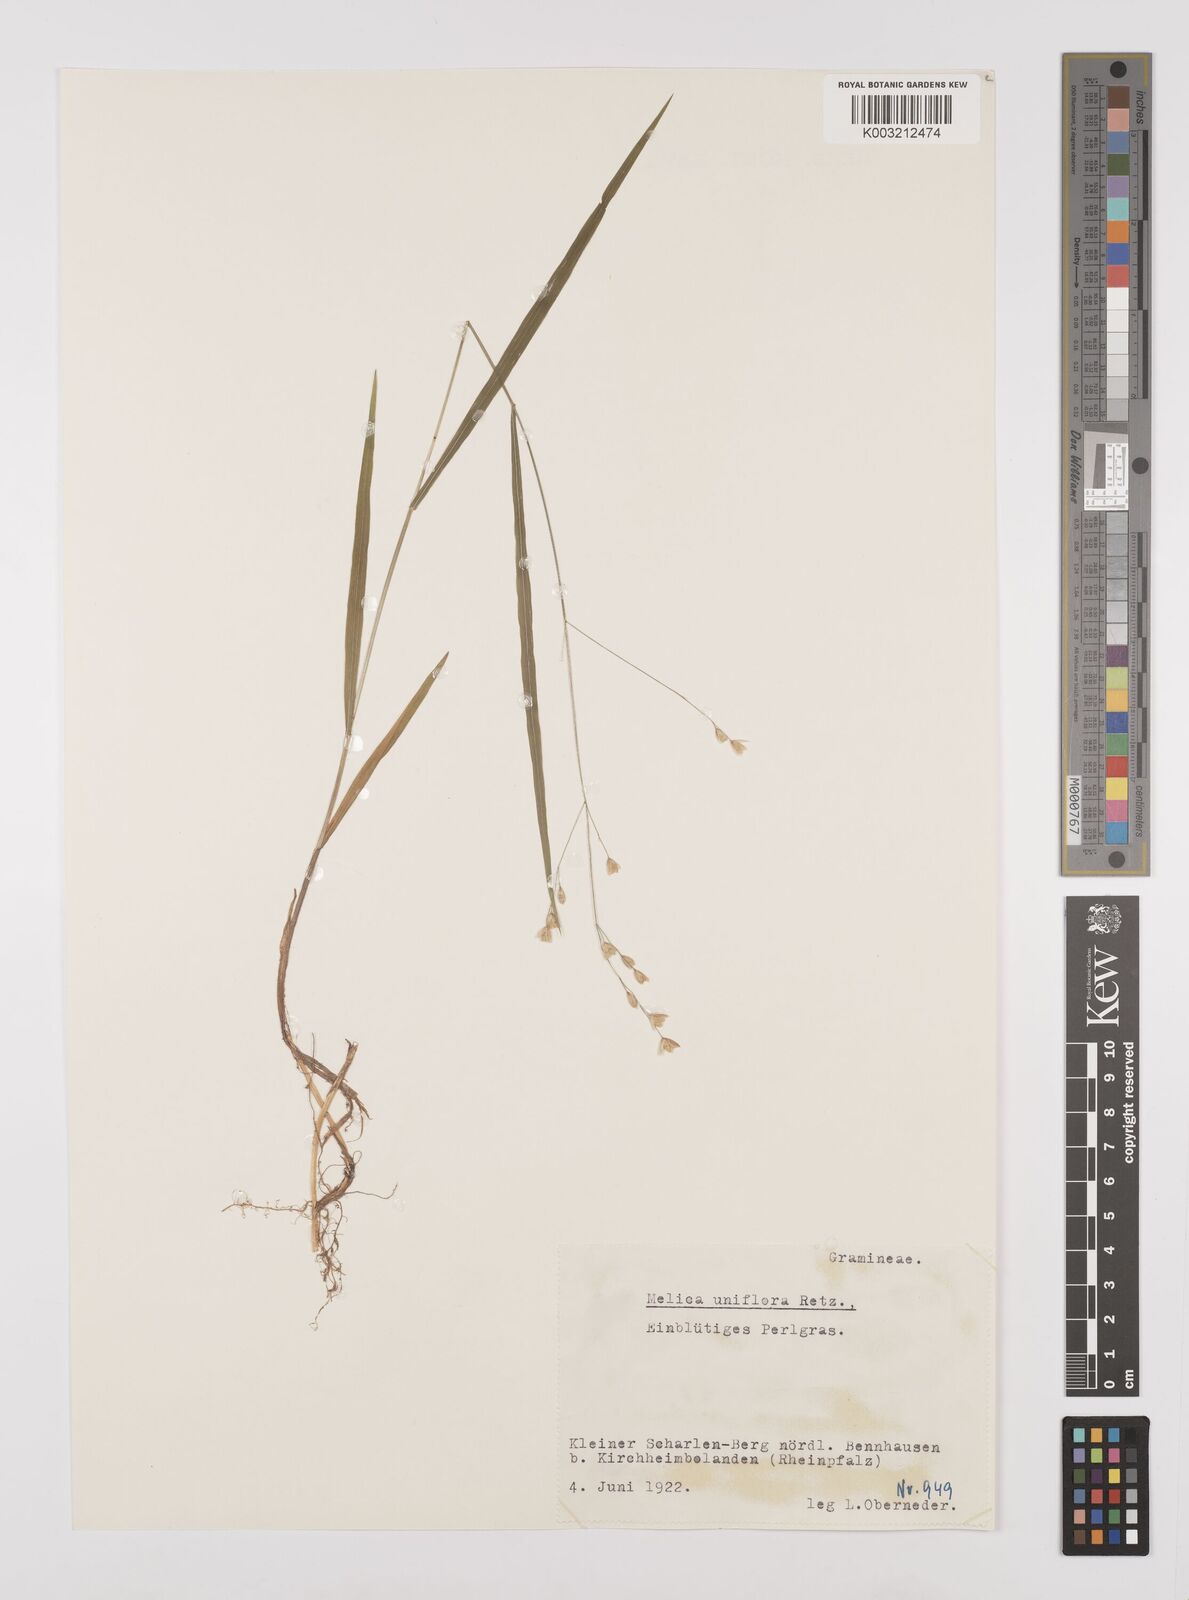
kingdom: Plantae
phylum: Tracheophyta
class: Liliopsida
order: Poales
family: Poaceae
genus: Melica
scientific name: Melica uniflora
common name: Wood melick
